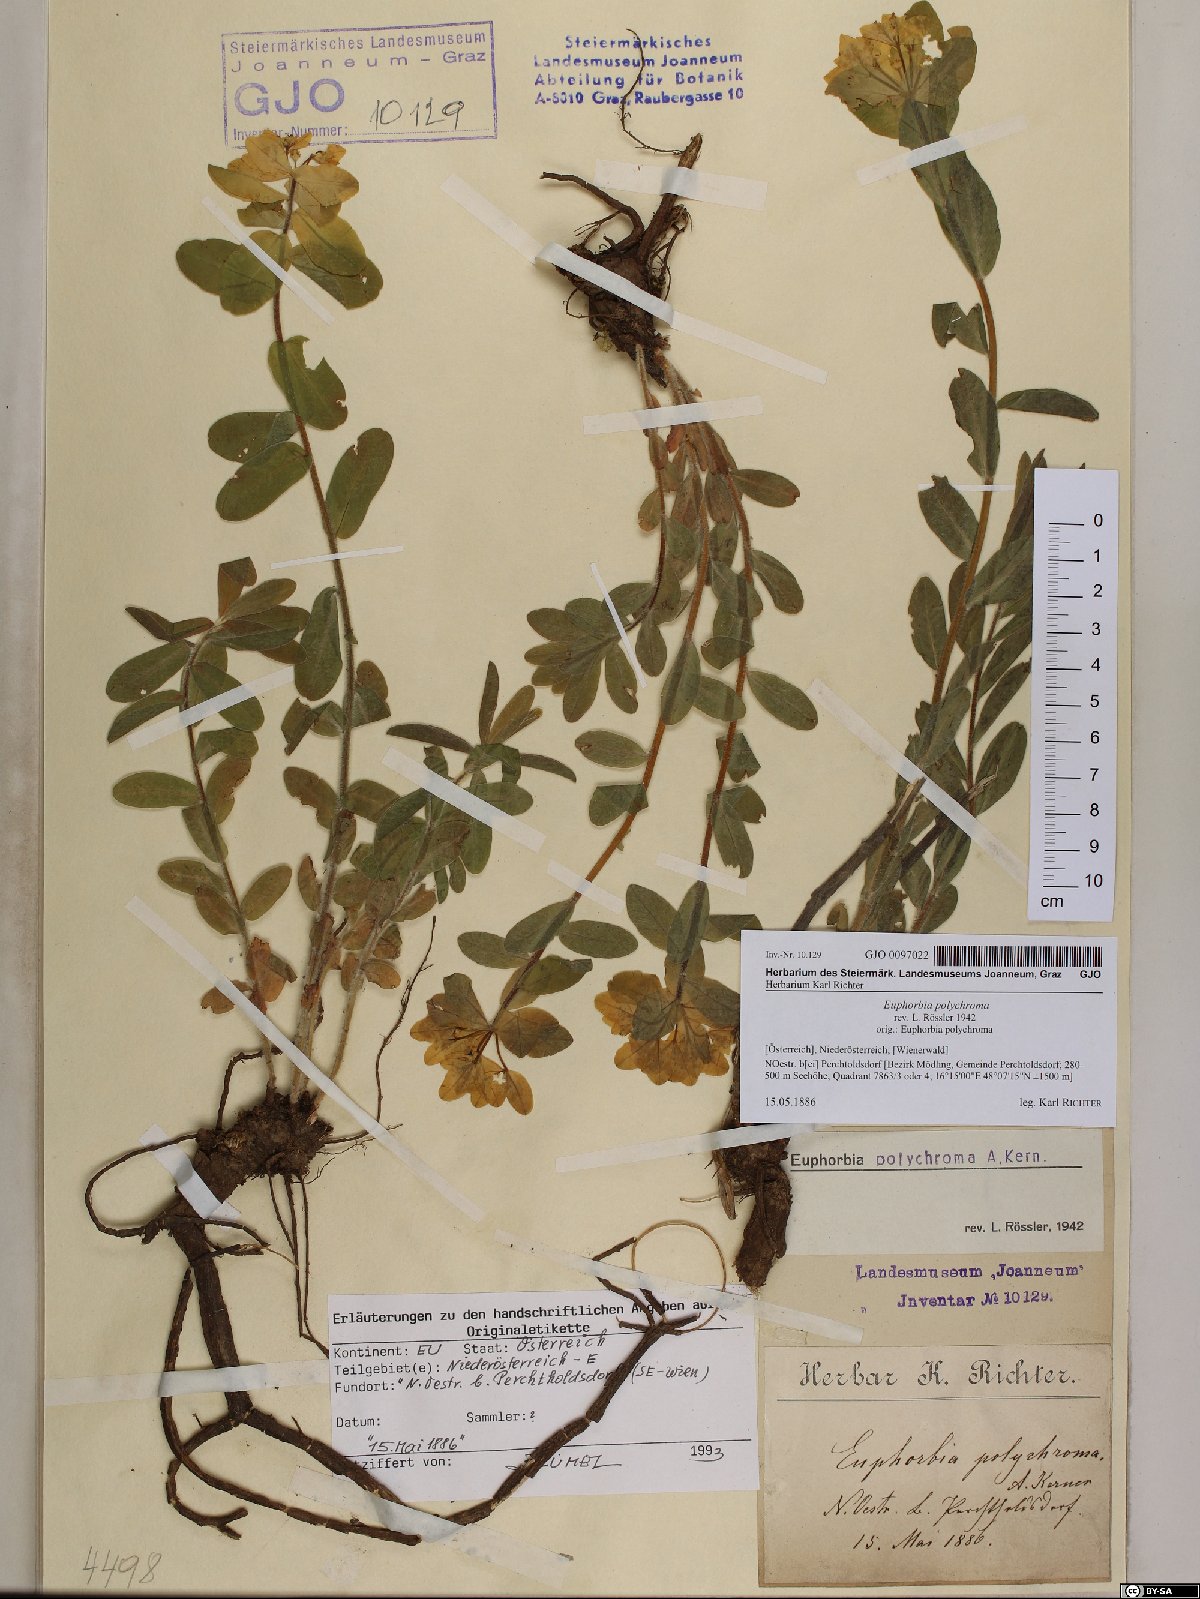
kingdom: Plantae
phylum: Tracheophyta
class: Magnoliopsida
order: Malpighiales
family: Euphorbiaceae
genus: Euphorbia
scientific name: Euphorbia epithymoides
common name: Cushion spurge
